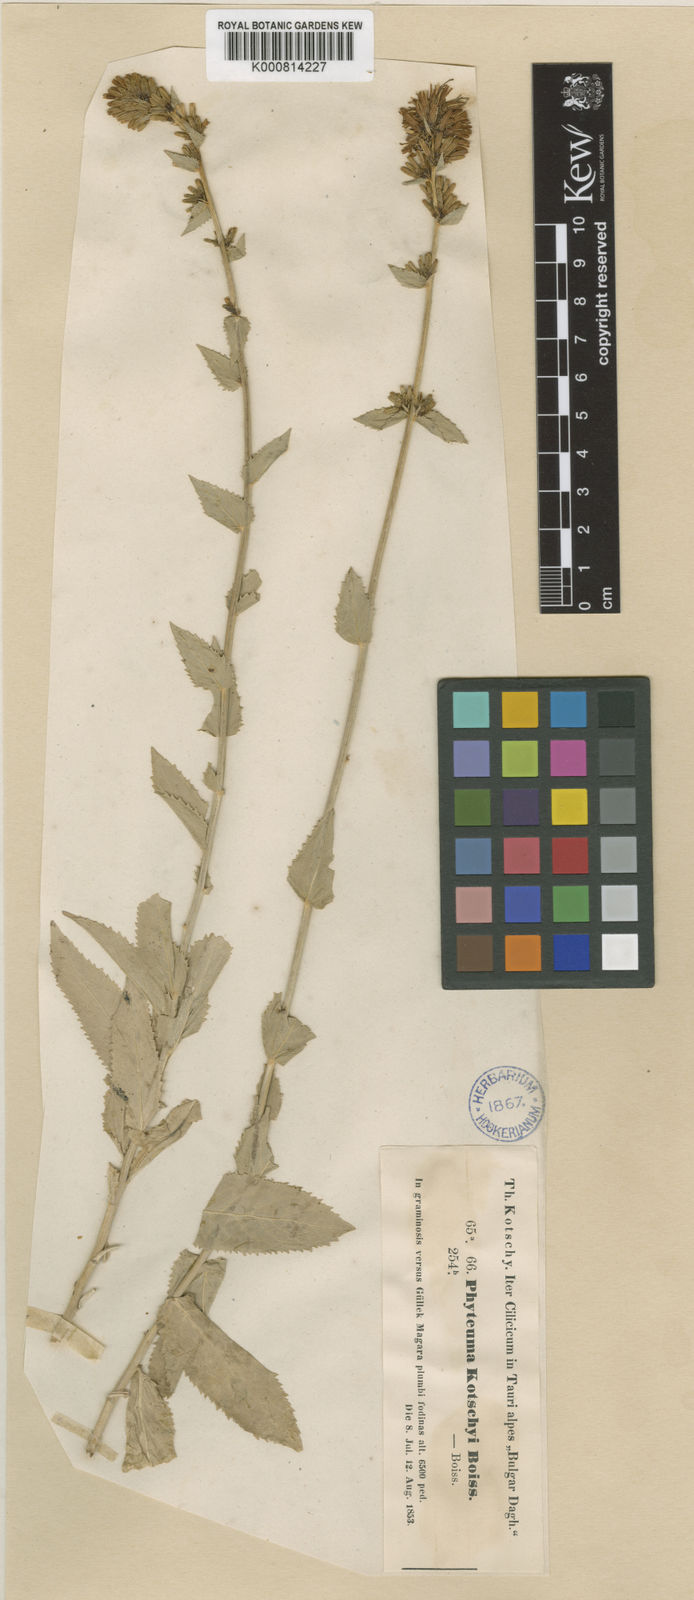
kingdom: Plantae
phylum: Tracheophyta
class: Magnoliopsida
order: Asterales
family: Campanulaceae
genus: Asyneuma
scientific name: Asyneuma amplexicaule
